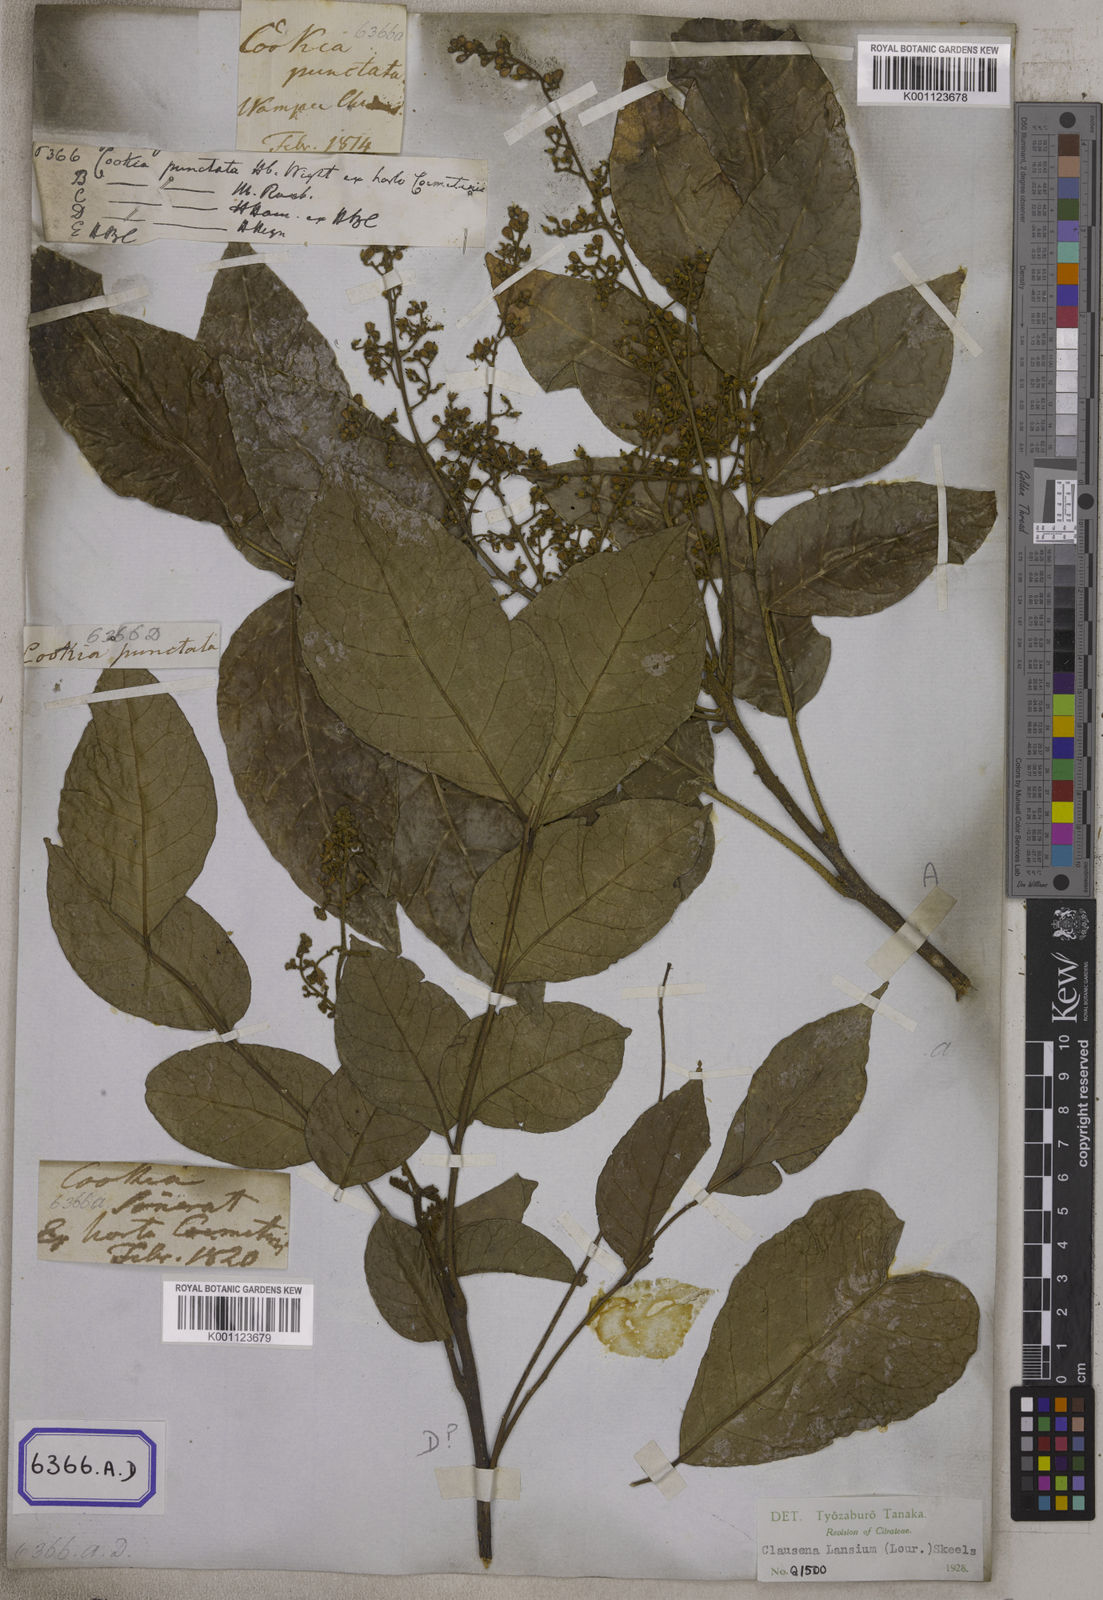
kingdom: Plantae
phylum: Tracheophyta
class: Magnoliopsida
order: Sapindales
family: Rutaceae
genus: Clausena
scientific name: Clausena excavata
